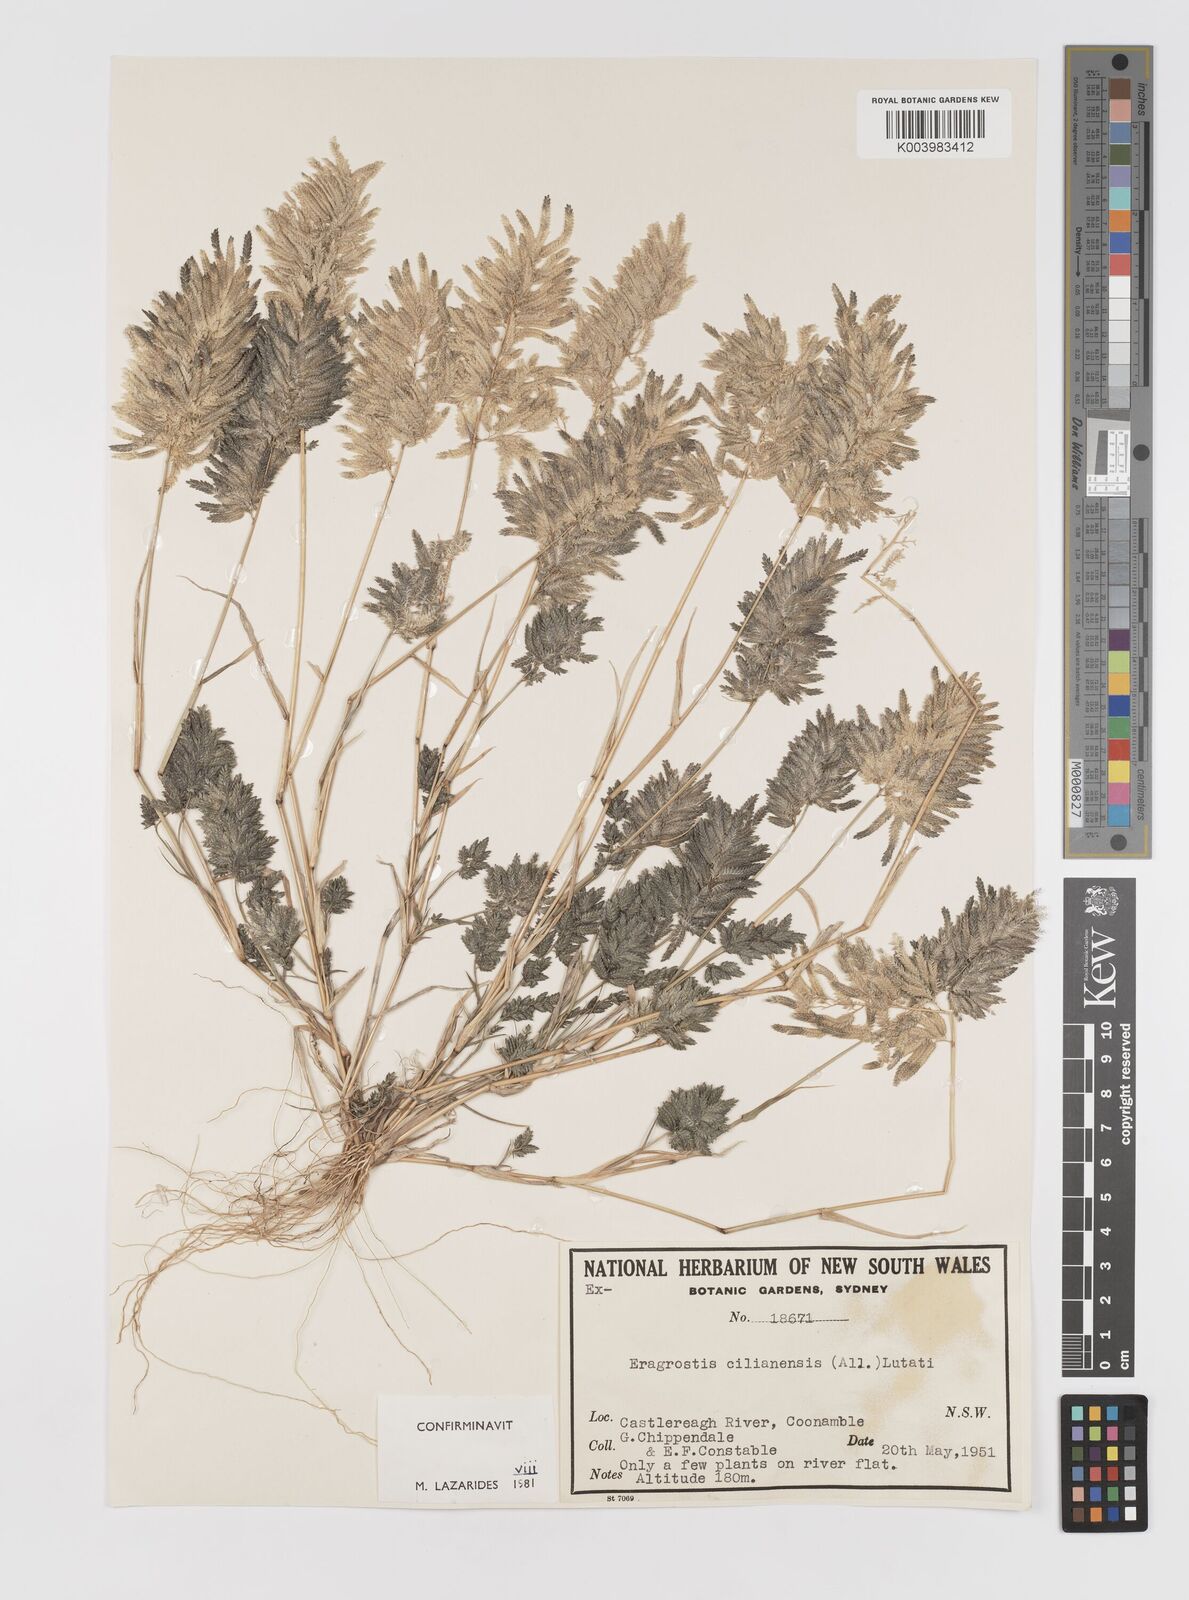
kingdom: Plantae
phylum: Tracheophyta
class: Liliopsida
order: Poales
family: Poaceae
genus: Eragrostis
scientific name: Eragrostis cilianensis
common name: Stinkgrass
